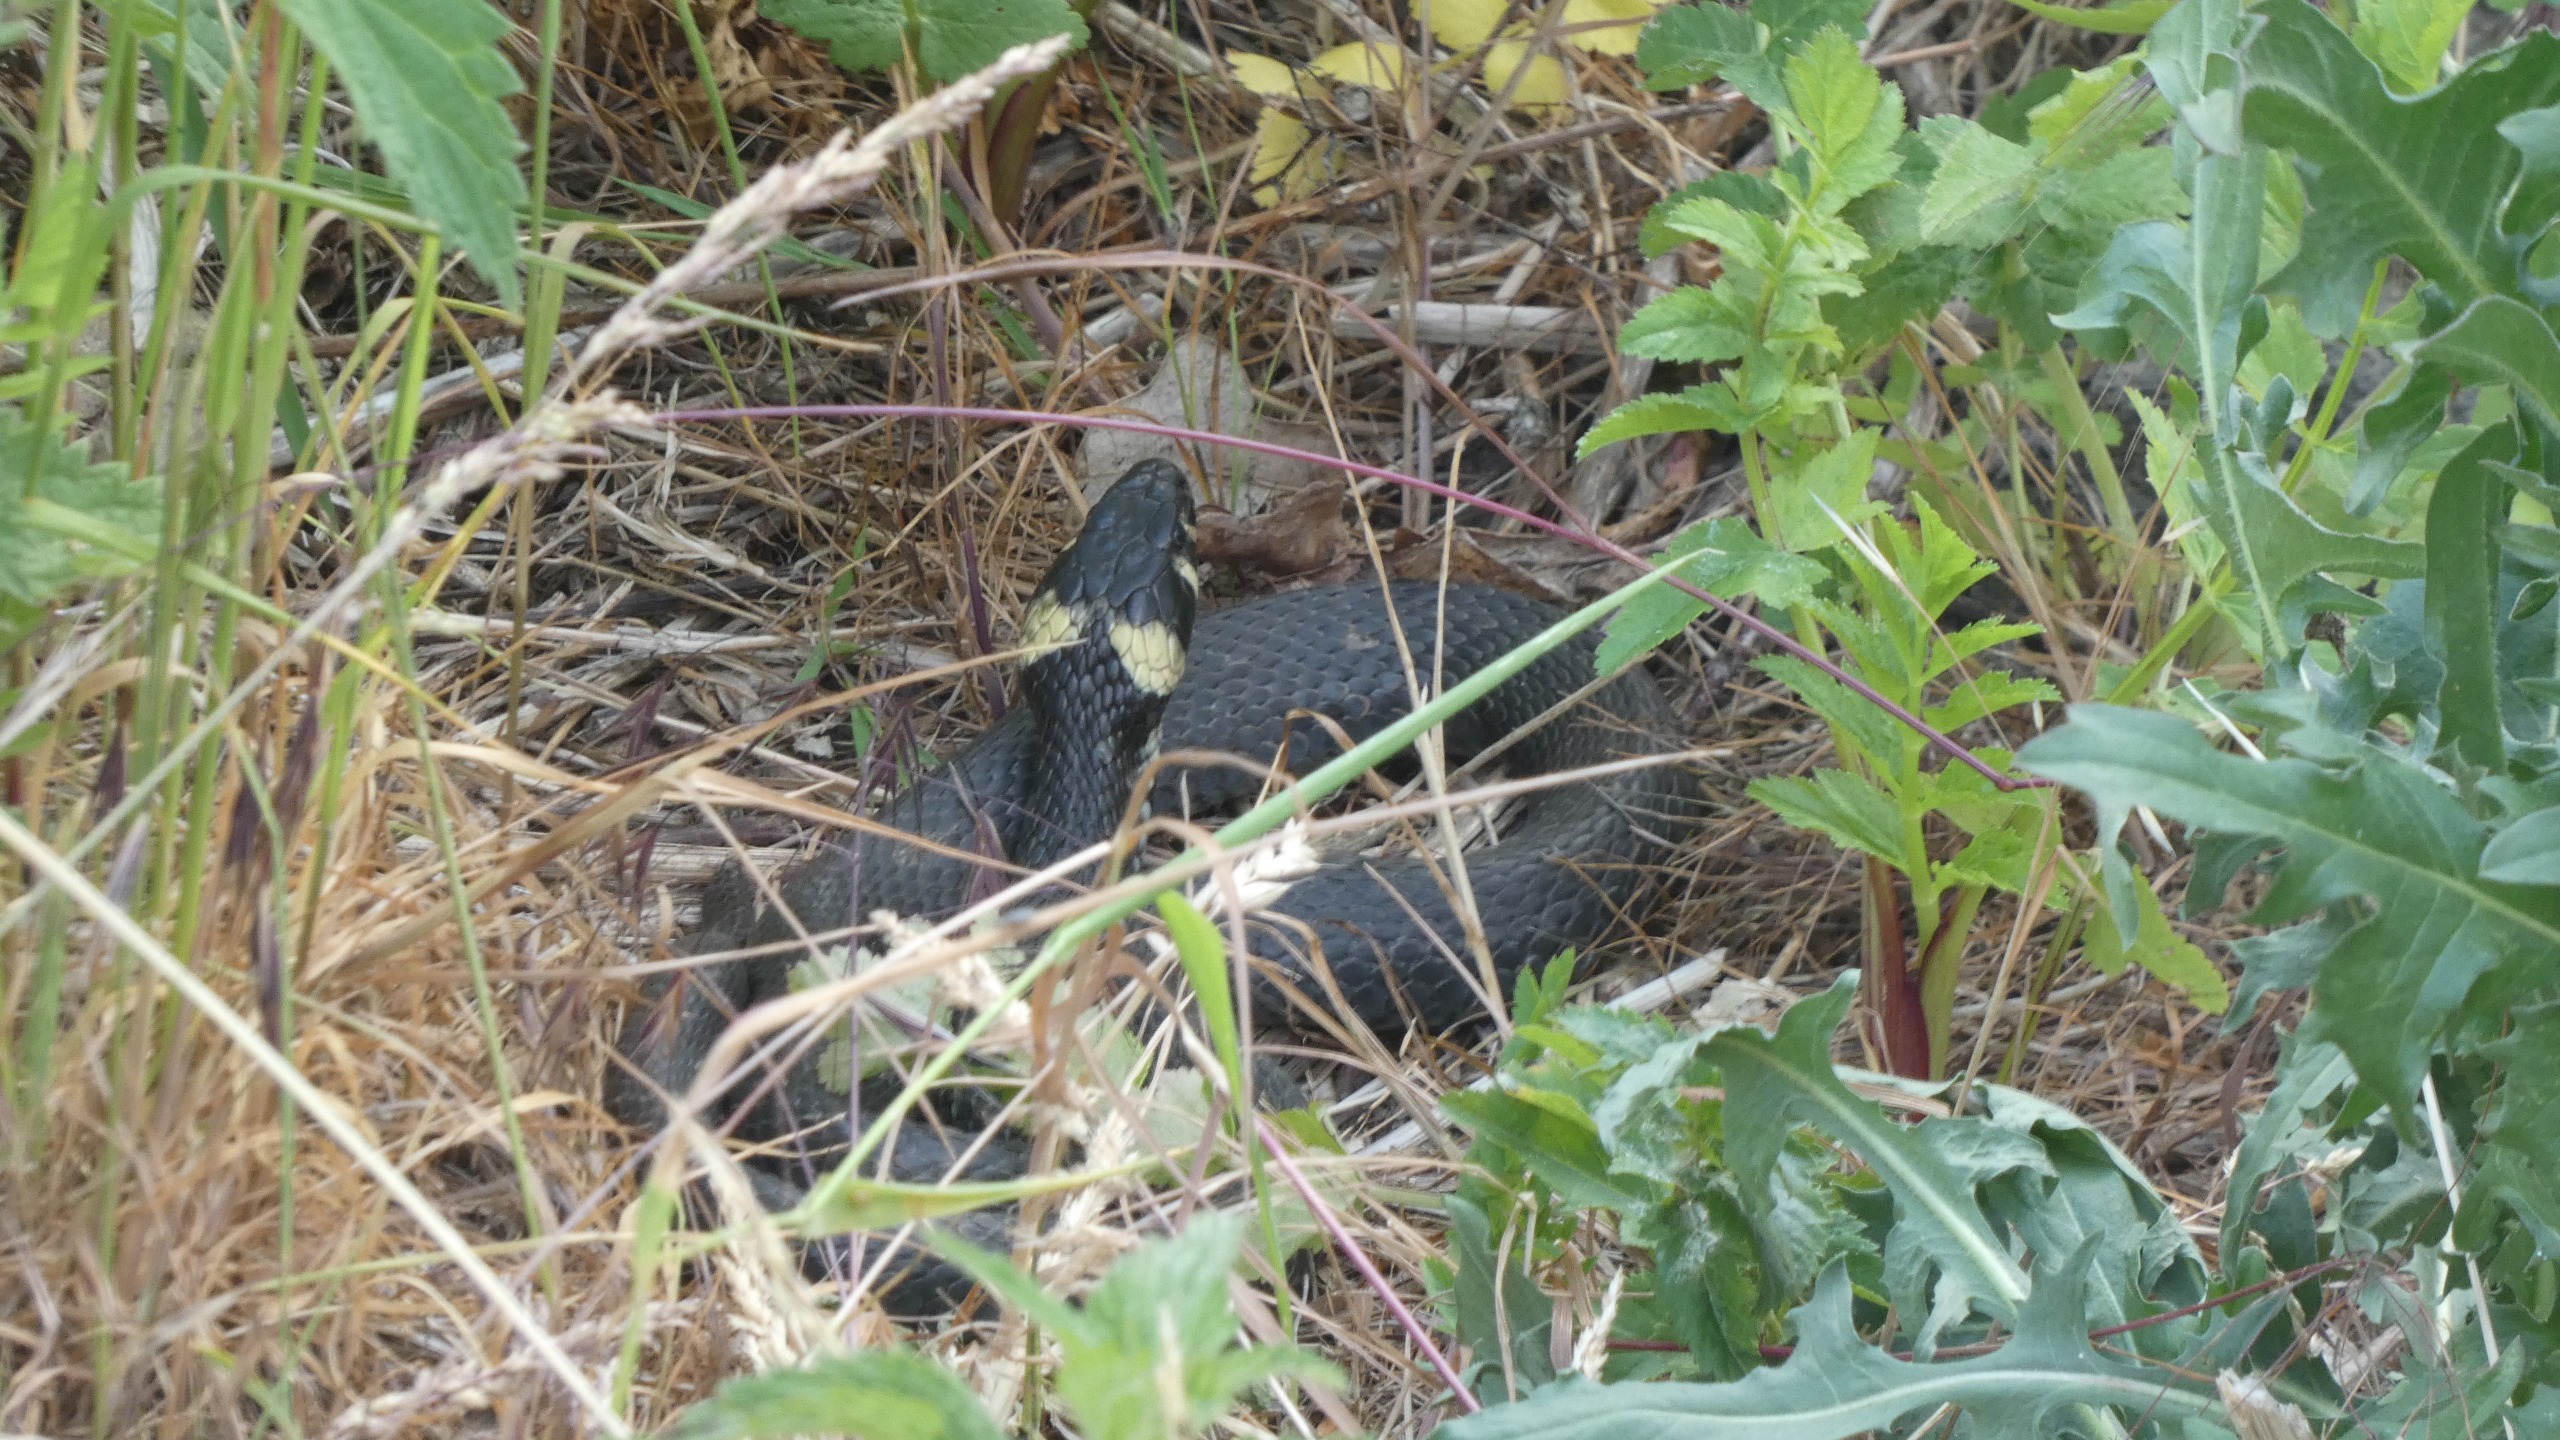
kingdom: Animalia
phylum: Chordata
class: Squamata
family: Colubridae
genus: Natrix
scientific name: Natrix natrix
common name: Snog
